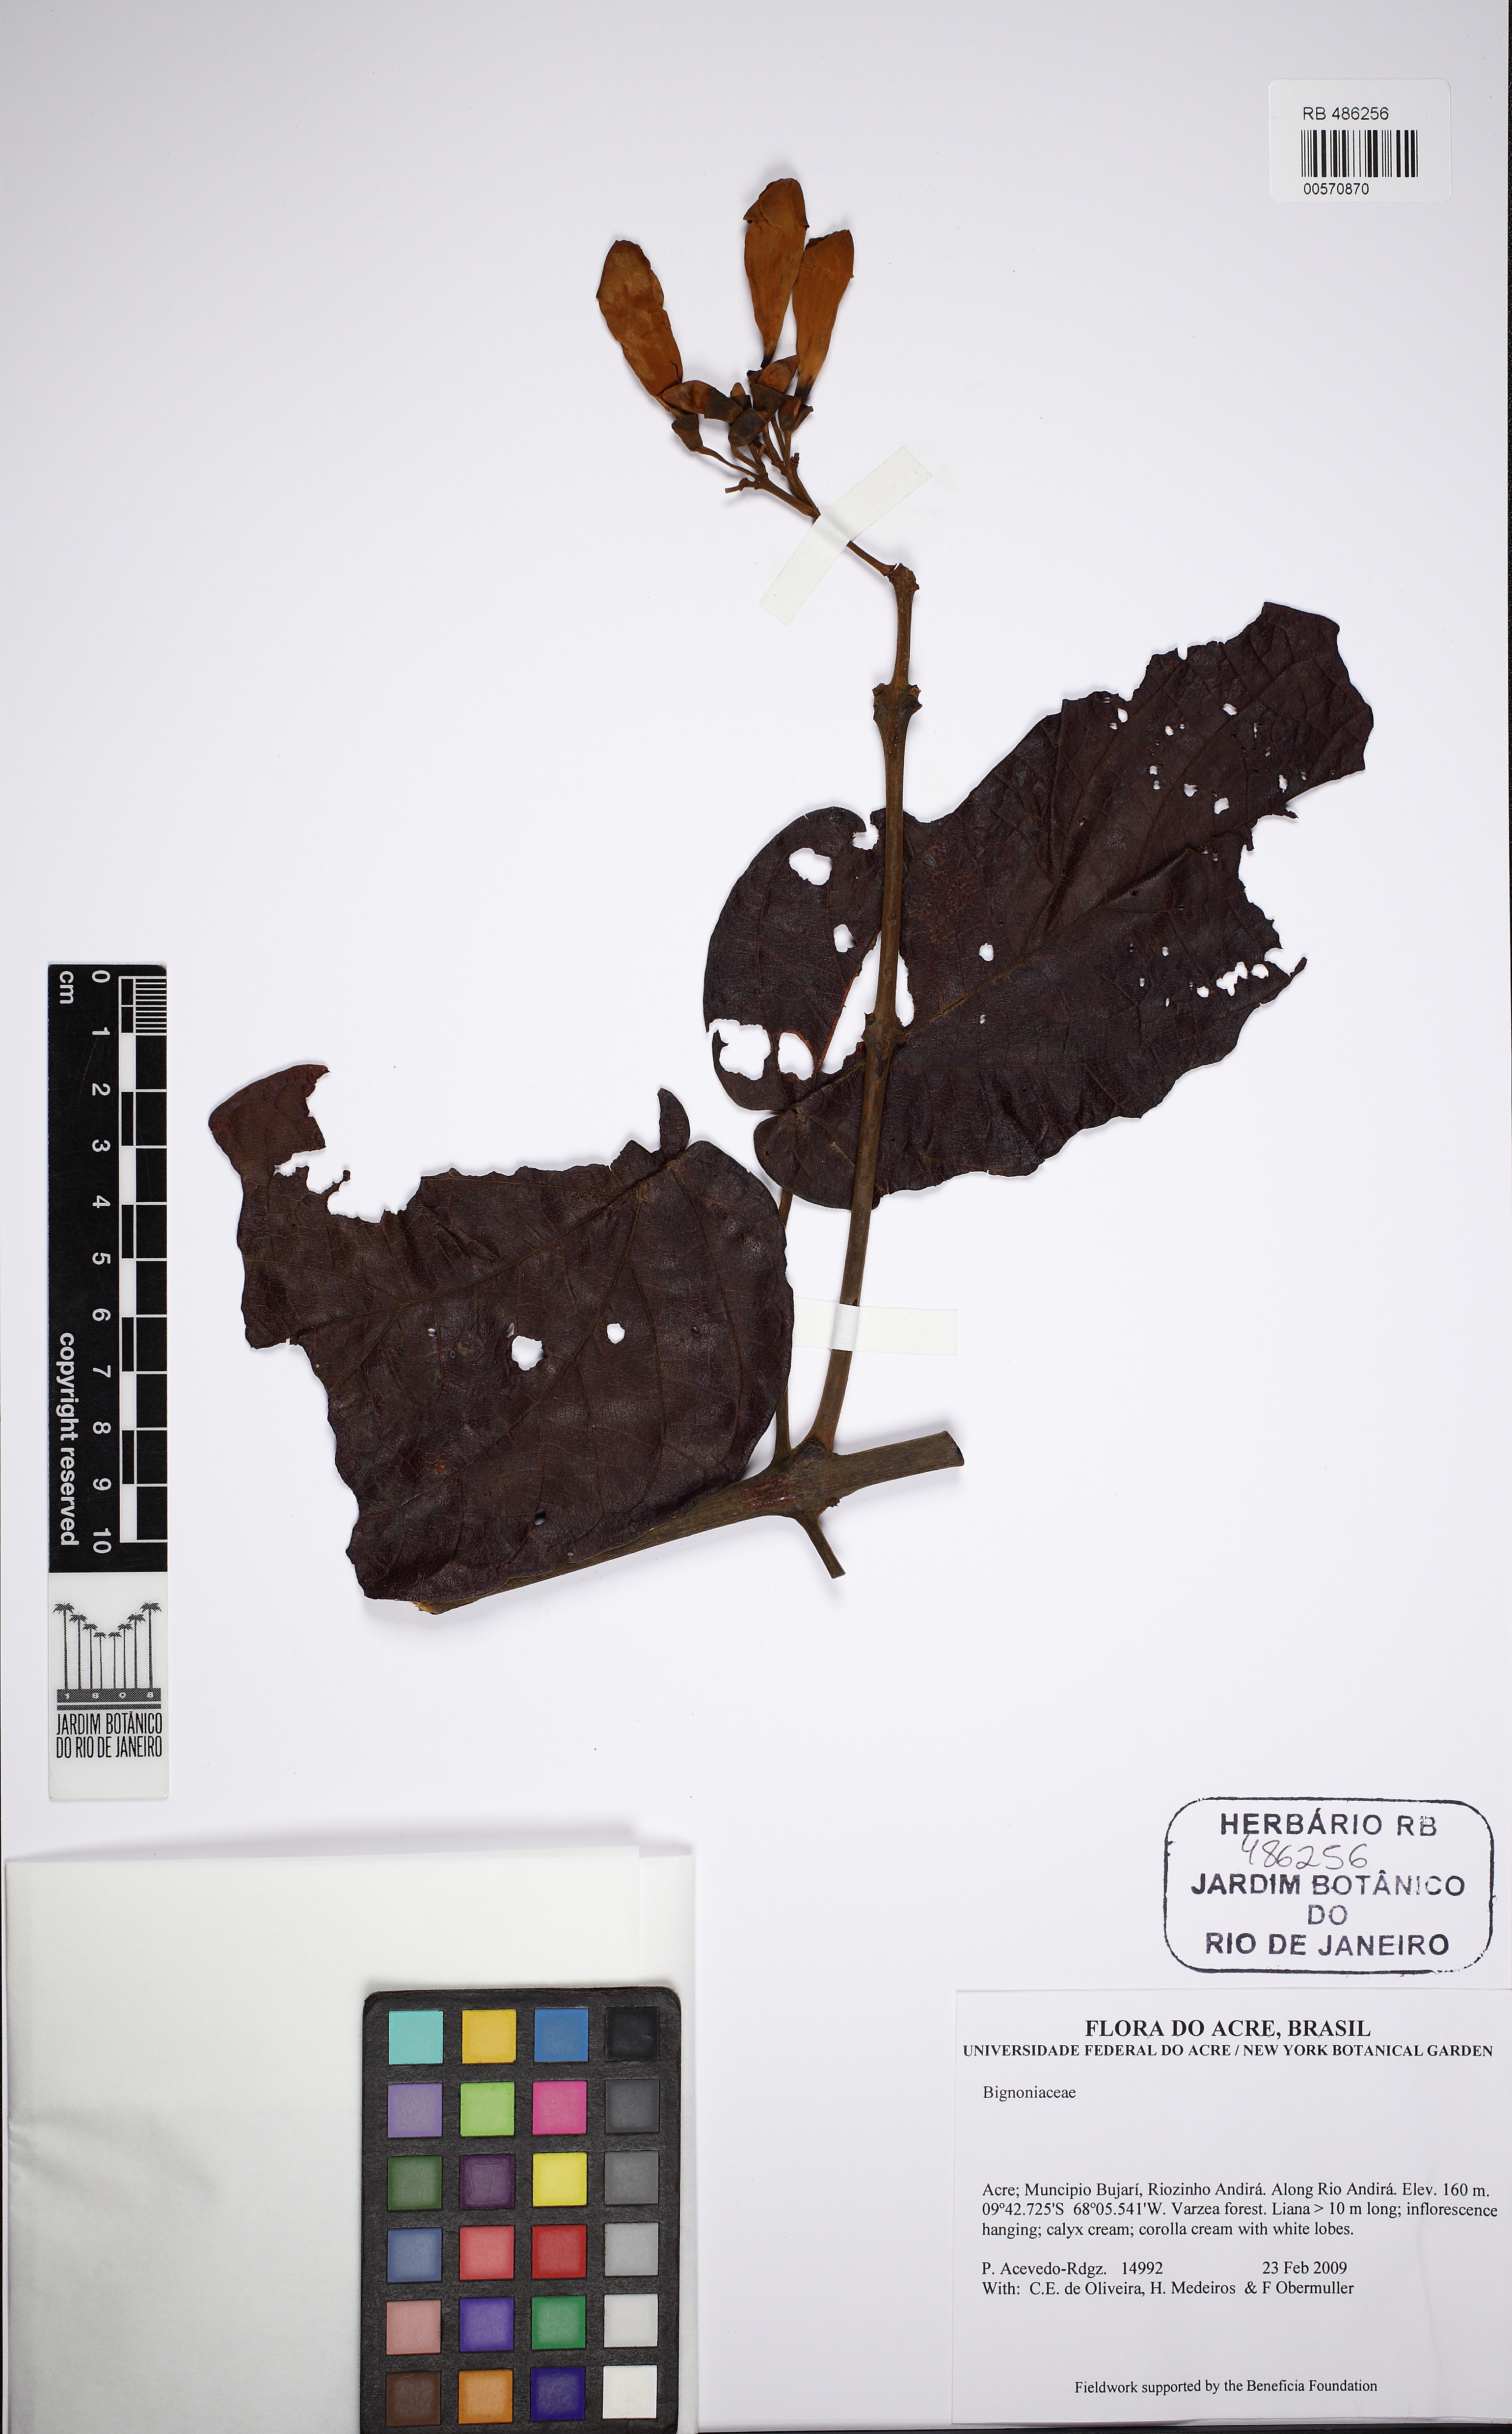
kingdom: Plantae
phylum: Tracheophyta
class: Magnoliopsida
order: Lamiales
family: Bignoniaceae
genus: Lundia
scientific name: Lundia densiflora
